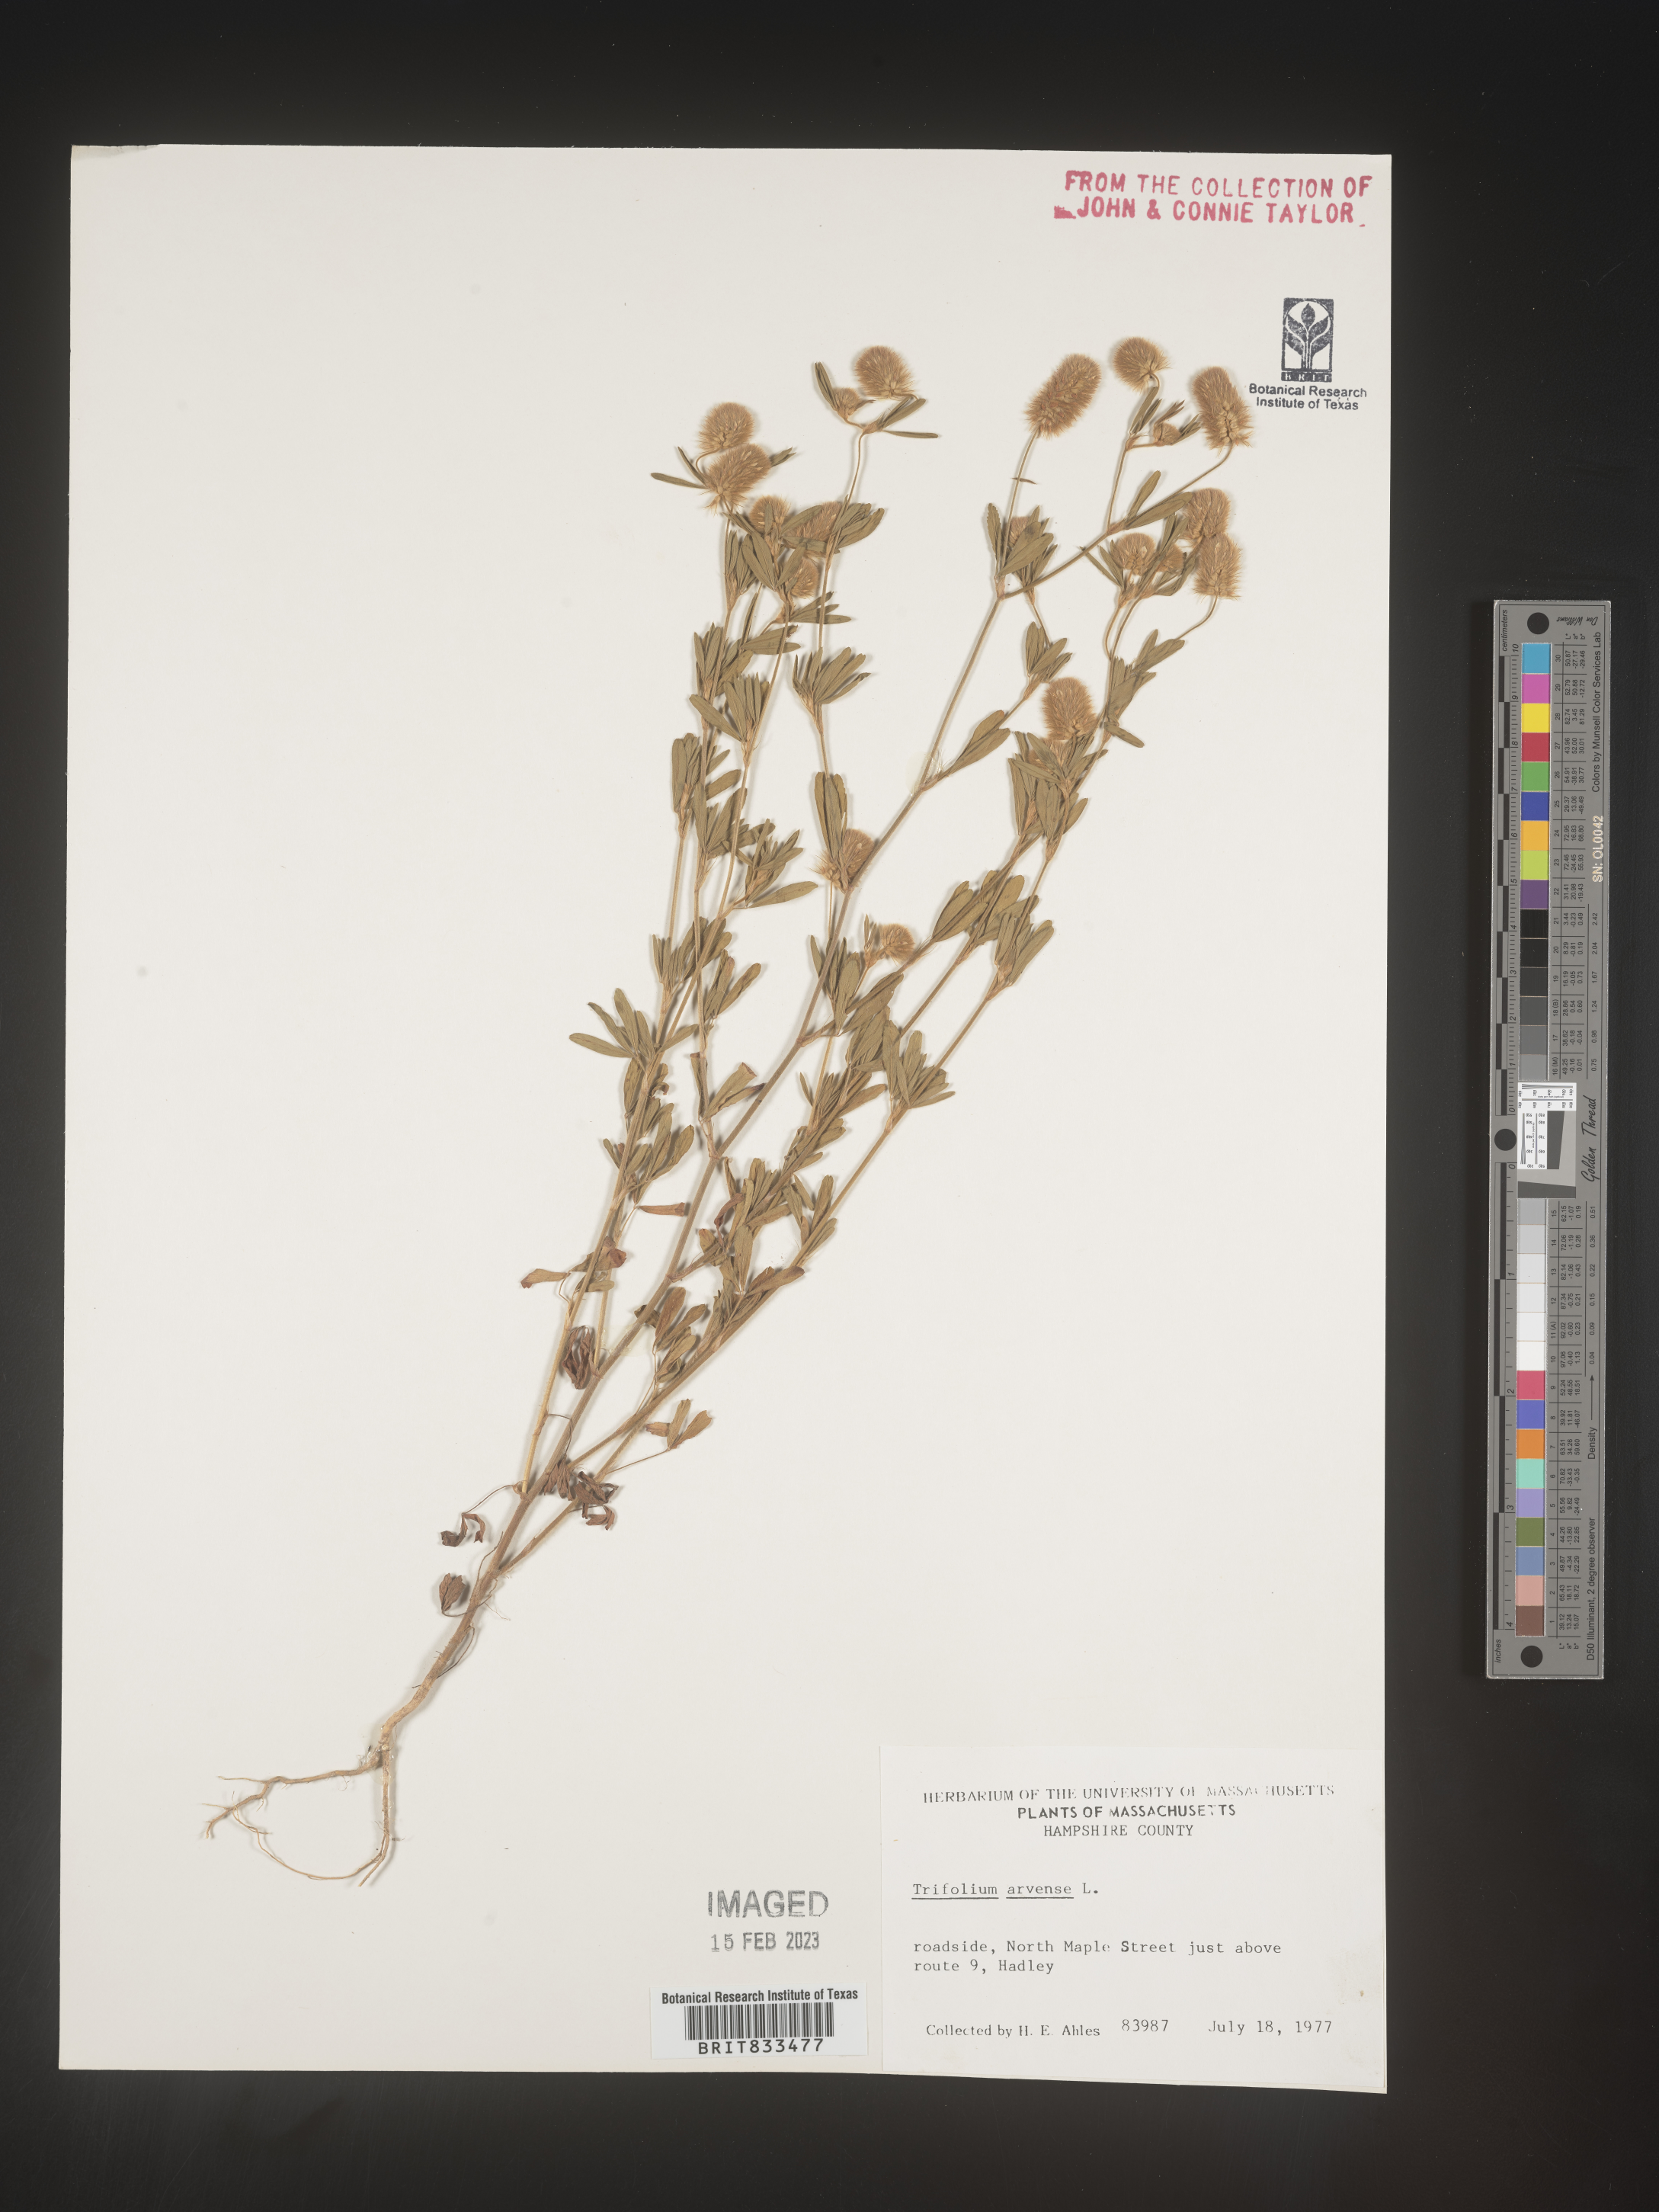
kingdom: Plantae
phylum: Tracheophyta
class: Magnoliopsida
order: Fabales
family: Fabaceae
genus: Trifolium
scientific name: Trifolium arvense
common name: Hare's-foot clover
